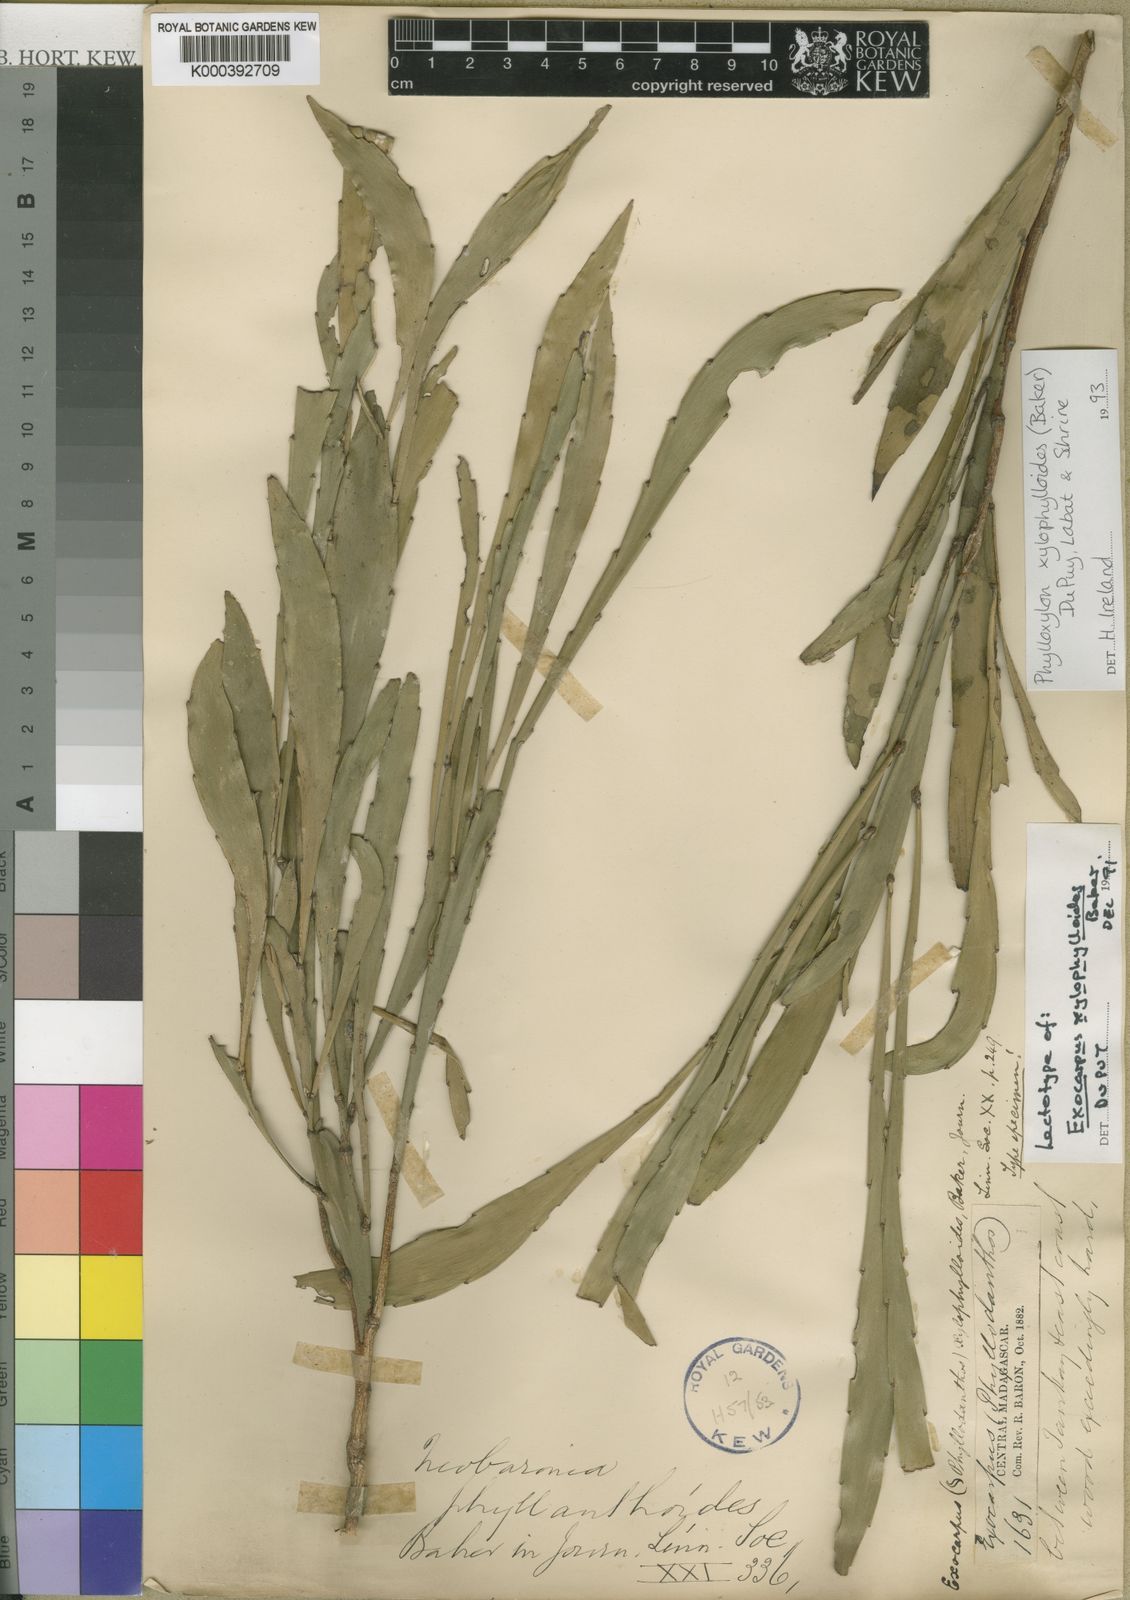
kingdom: Plantae
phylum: Tracheophyta
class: Magnoliopsida
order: Fabales
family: Fabaceae
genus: Phylloxylon
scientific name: Phylloxylon xylophylloides
